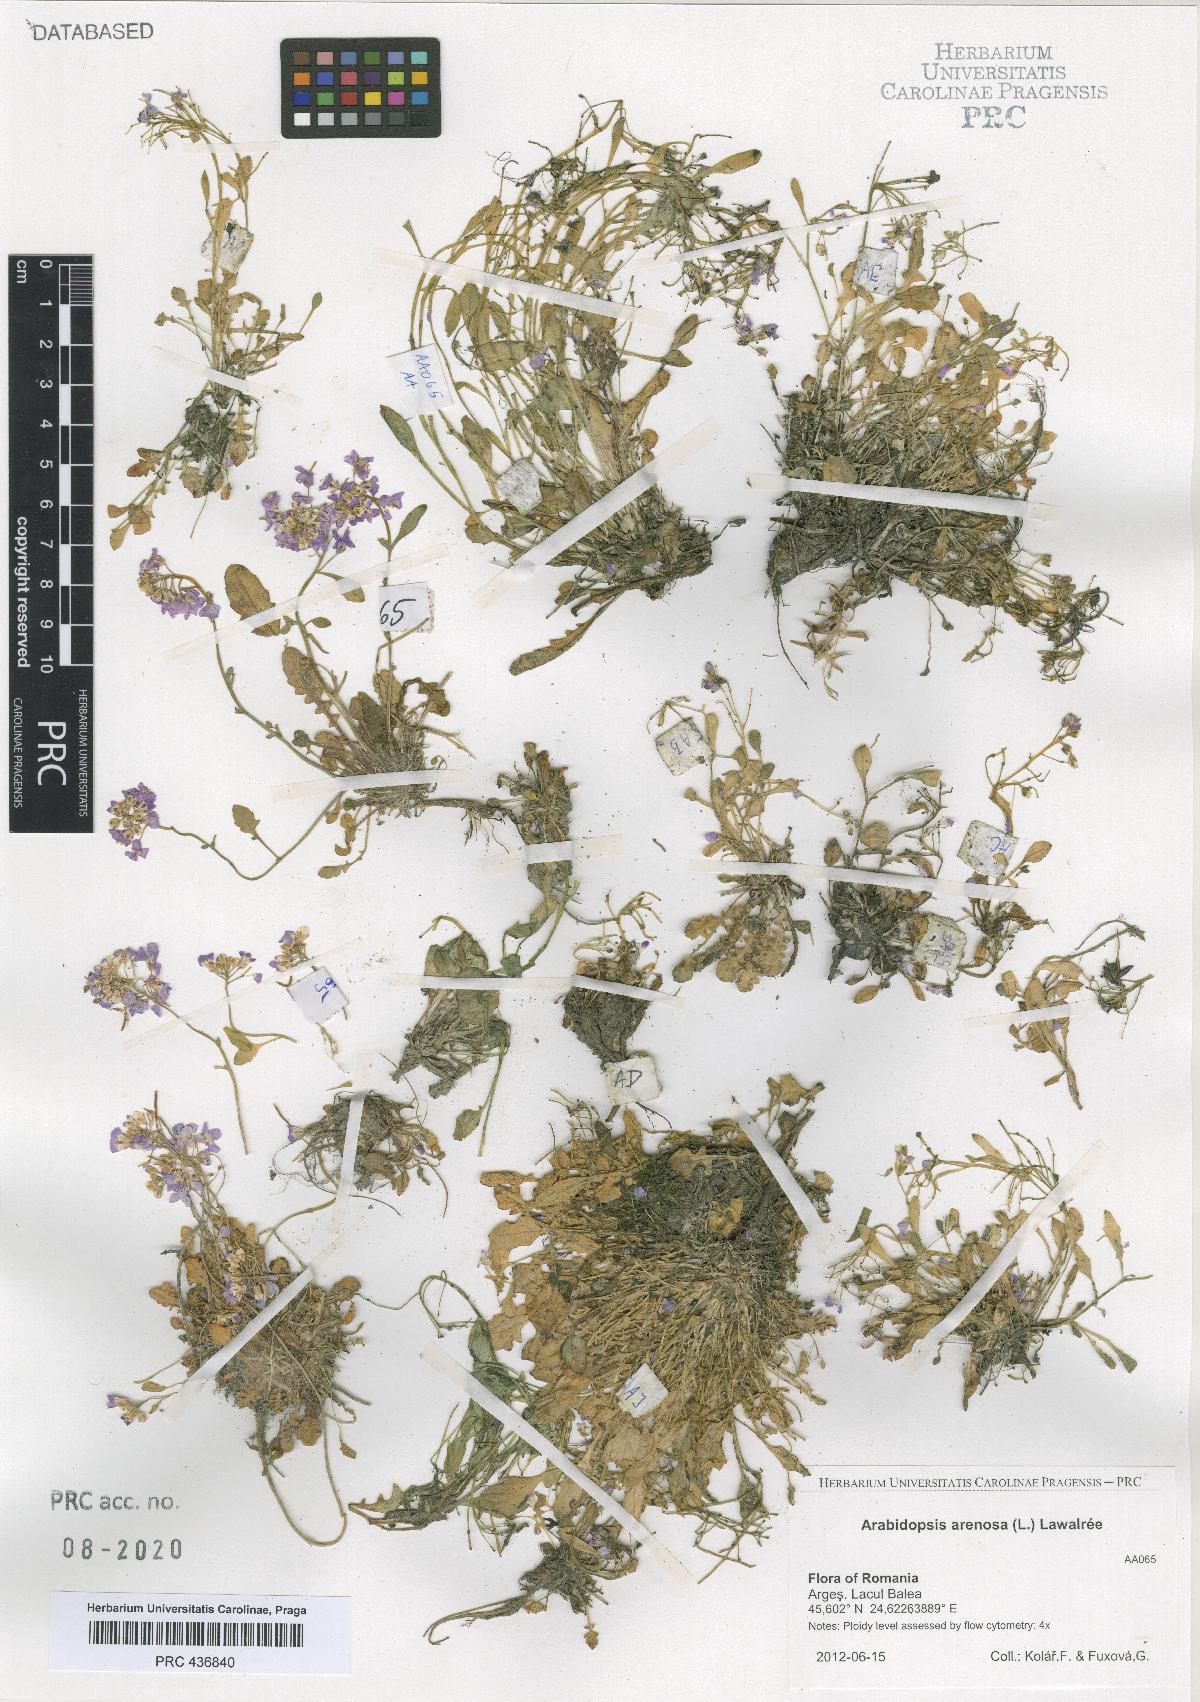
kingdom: Plantae
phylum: Tracheophyta
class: Magnoliopsida
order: Brassicales
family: Brassicaceae
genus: Arabidopsis
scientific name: Arabidopsis arenosa
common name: Sand rock-cress
